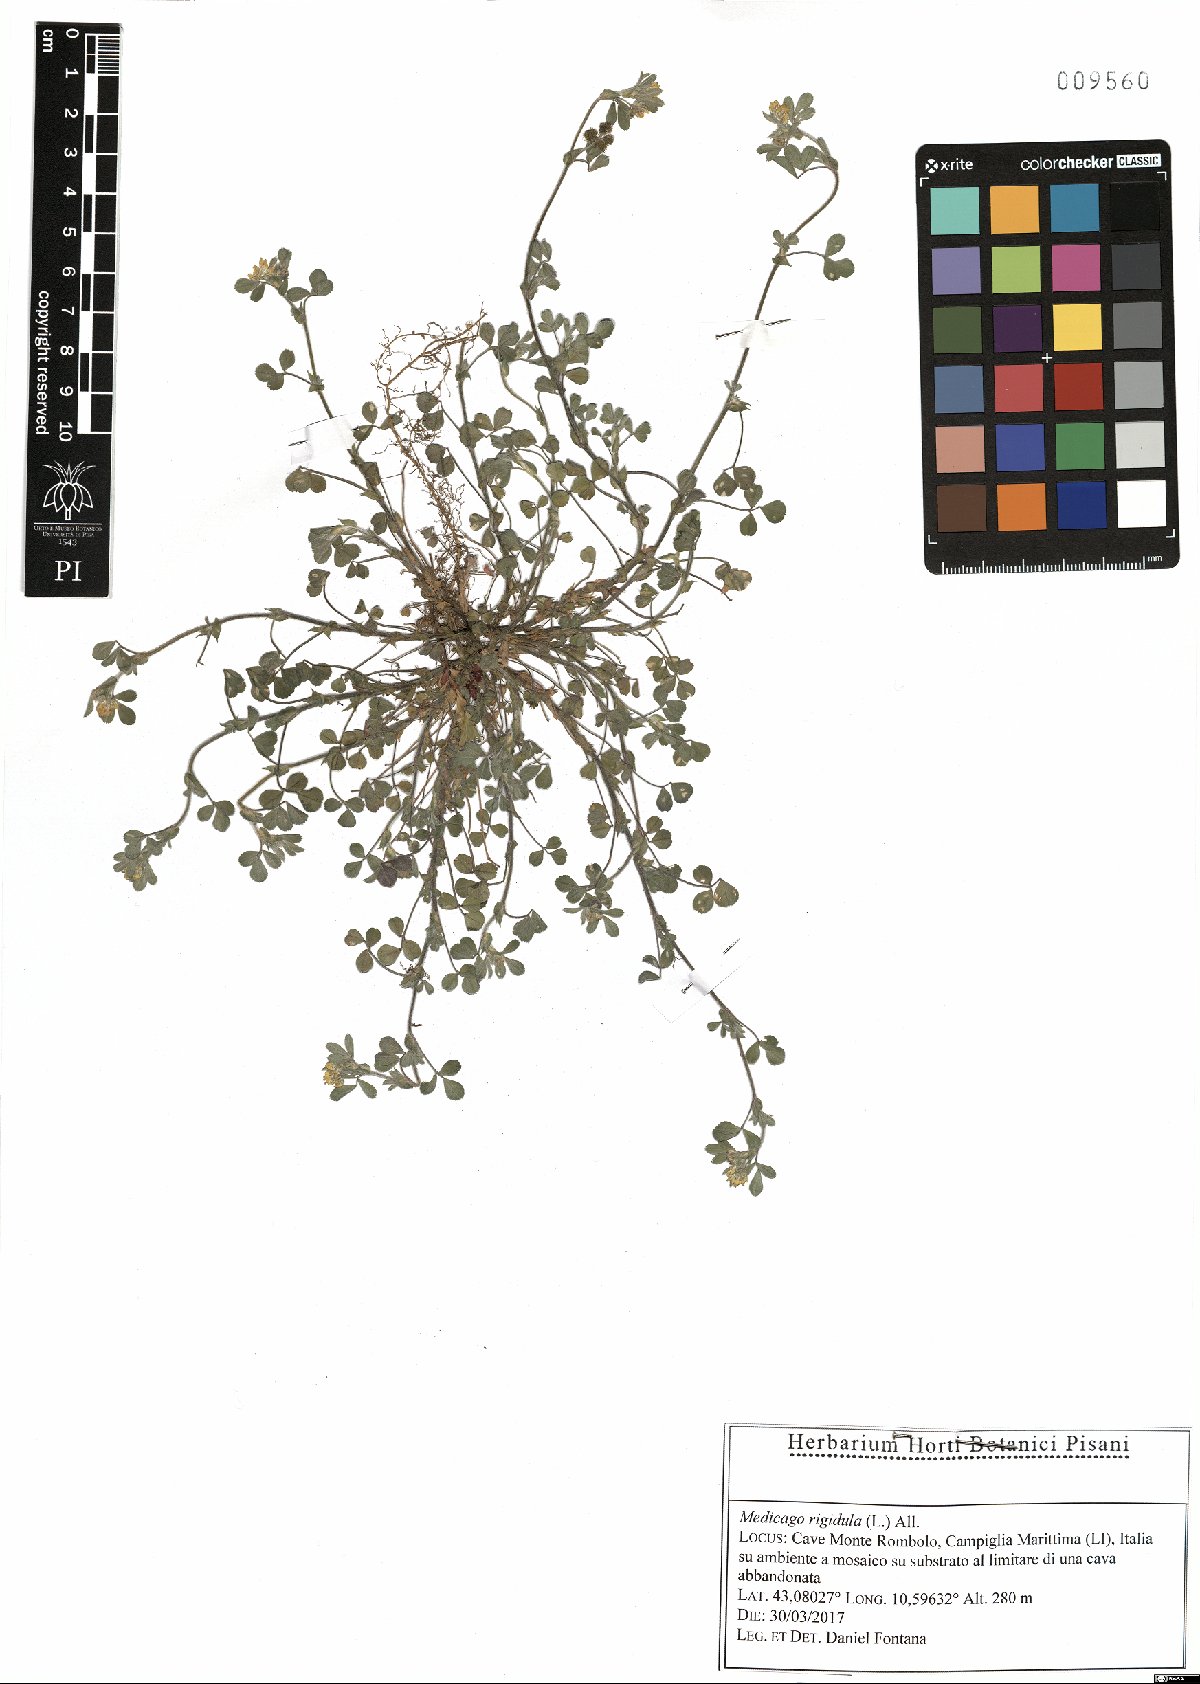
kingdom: Plantae
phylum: Tracheophyta
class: Magnoliopsida
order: Fabales
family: Fabaceae
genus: Medicago
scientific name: Medicago rigidula
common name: Tifton medic
